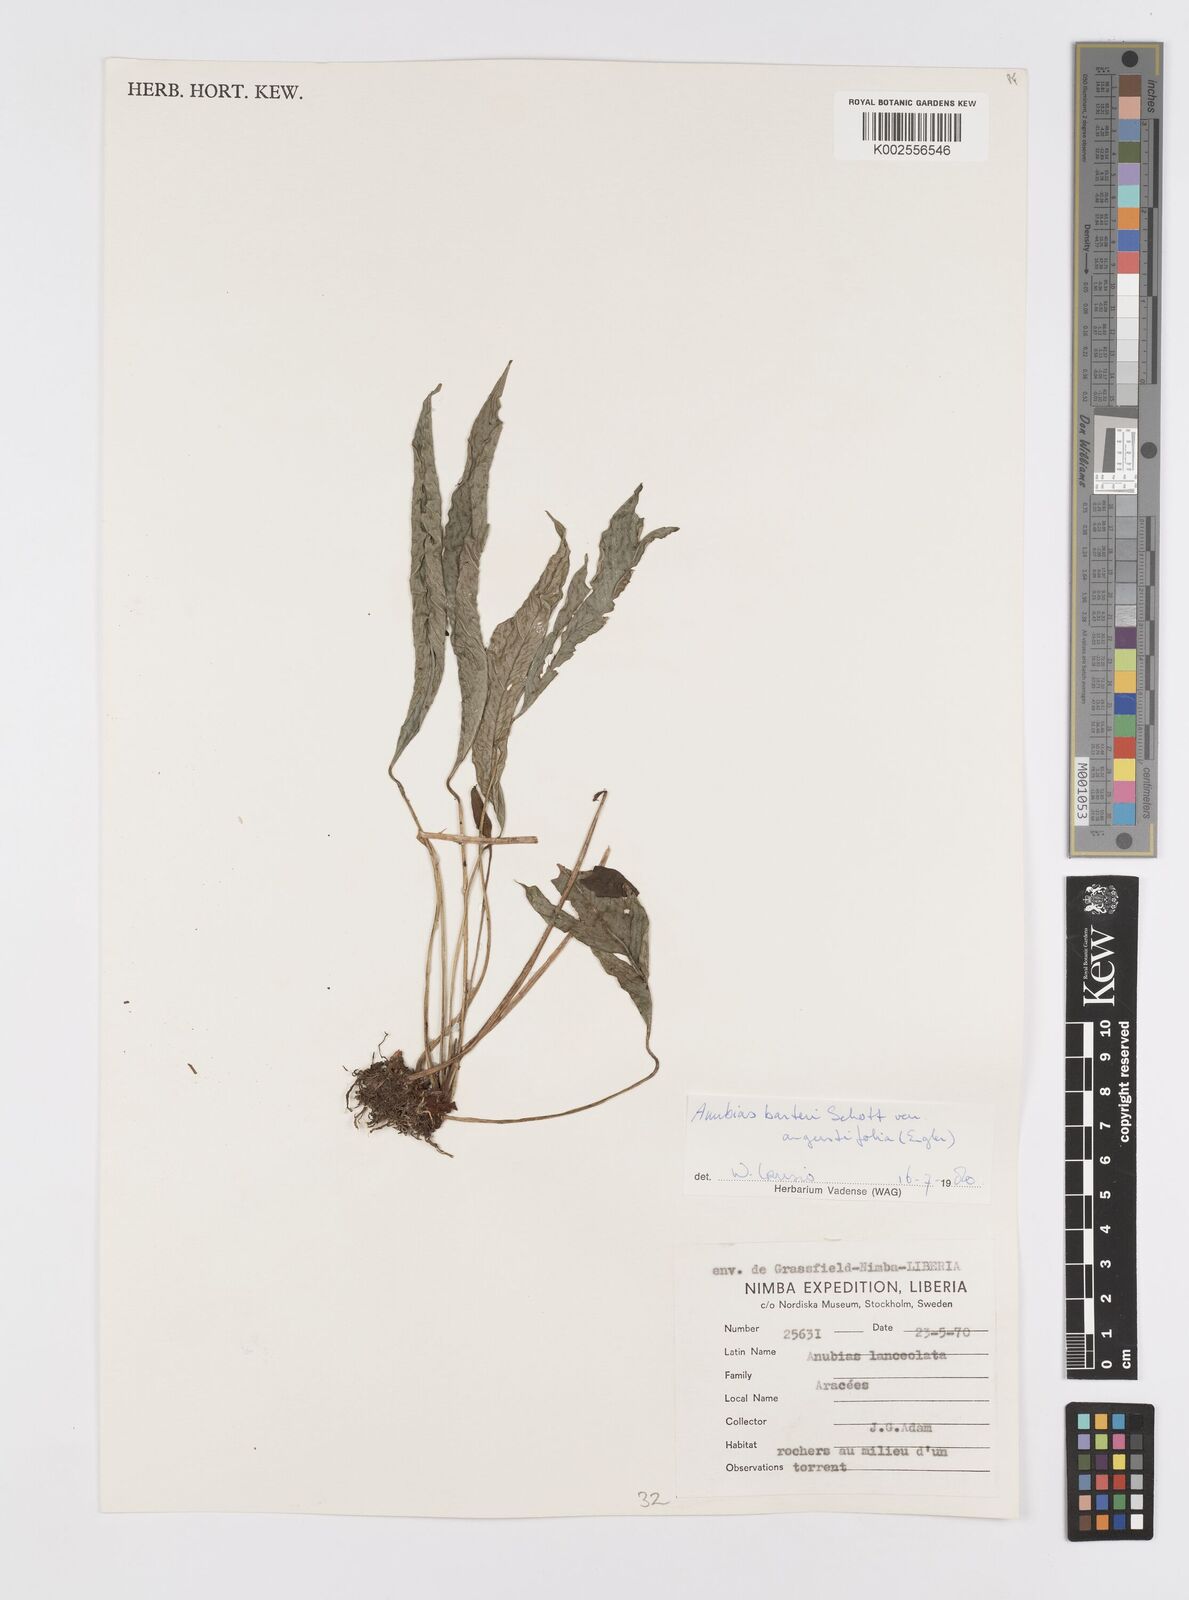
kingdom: Plantae
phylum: Tracheophyta
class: Liliopsida
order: Alismatales
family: Araceae
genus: Anubias
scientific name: Anubias barteri
